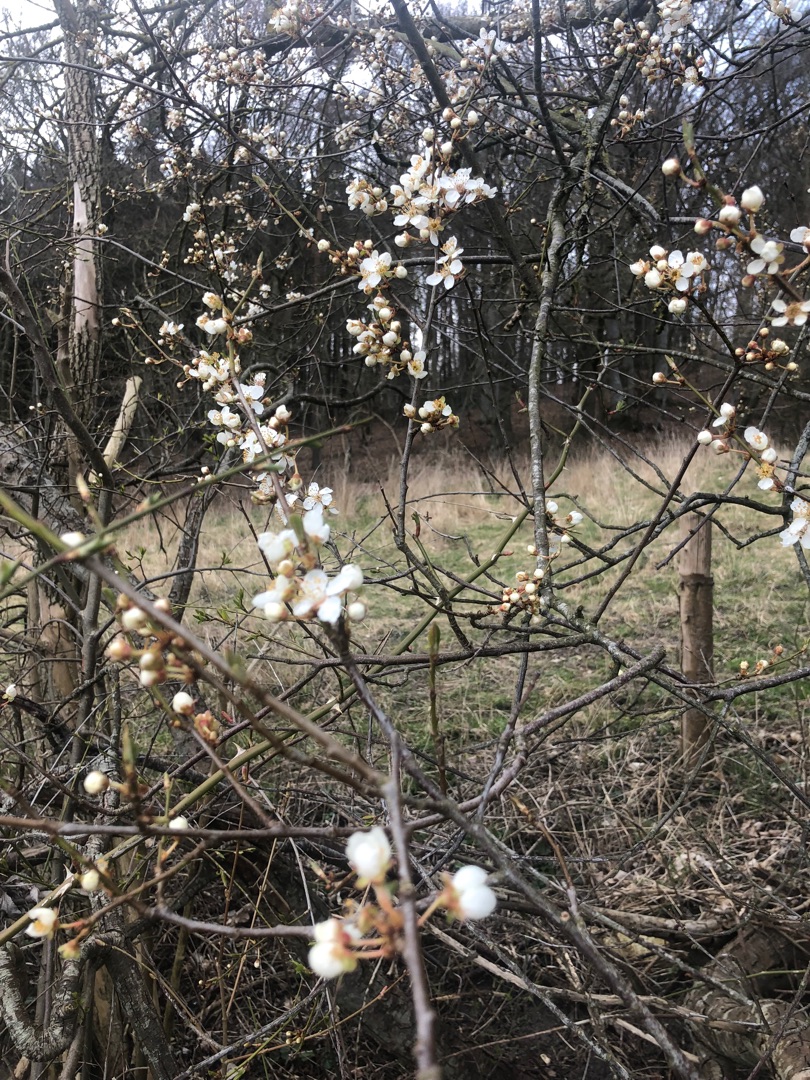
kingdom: Plantae
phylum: Tracheophyta
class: Magnoliopsida
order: Rosales
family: Rosaceae
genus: Prunus
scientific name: Prunus cerasifera
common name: Mirabel
